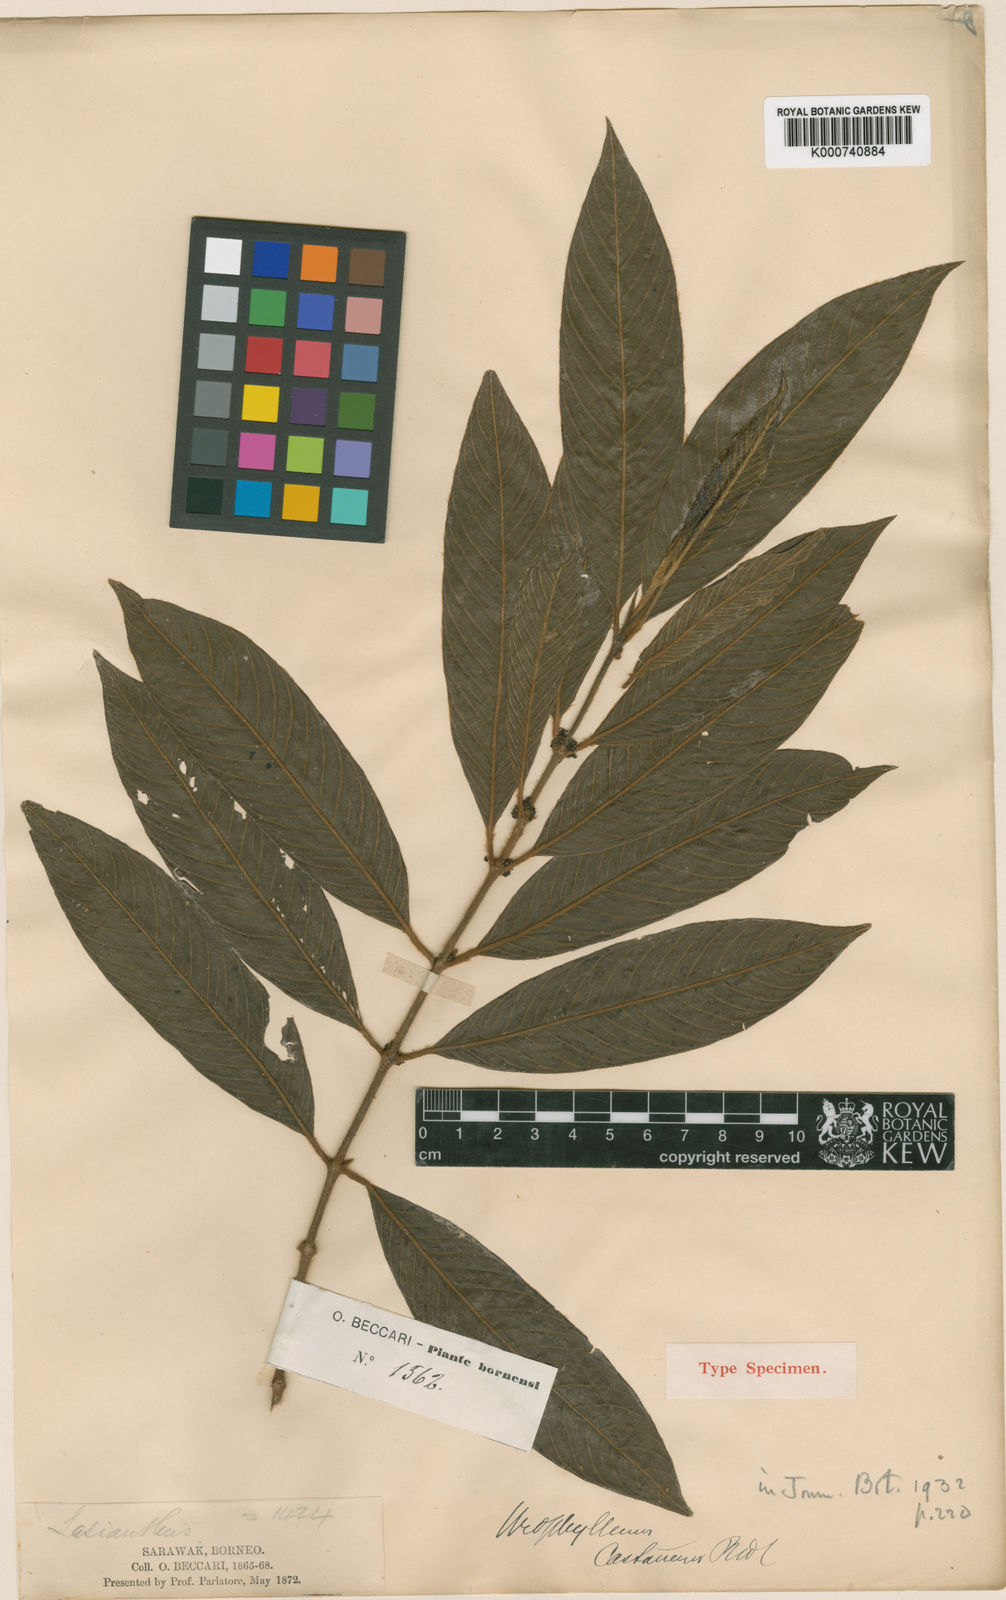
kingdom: Plantae
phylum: Tracheophyta
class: Magnoliopsida
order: Gentianales
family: Rubiaceae
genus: Urophyllum
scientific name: Urophyllum castaneum
